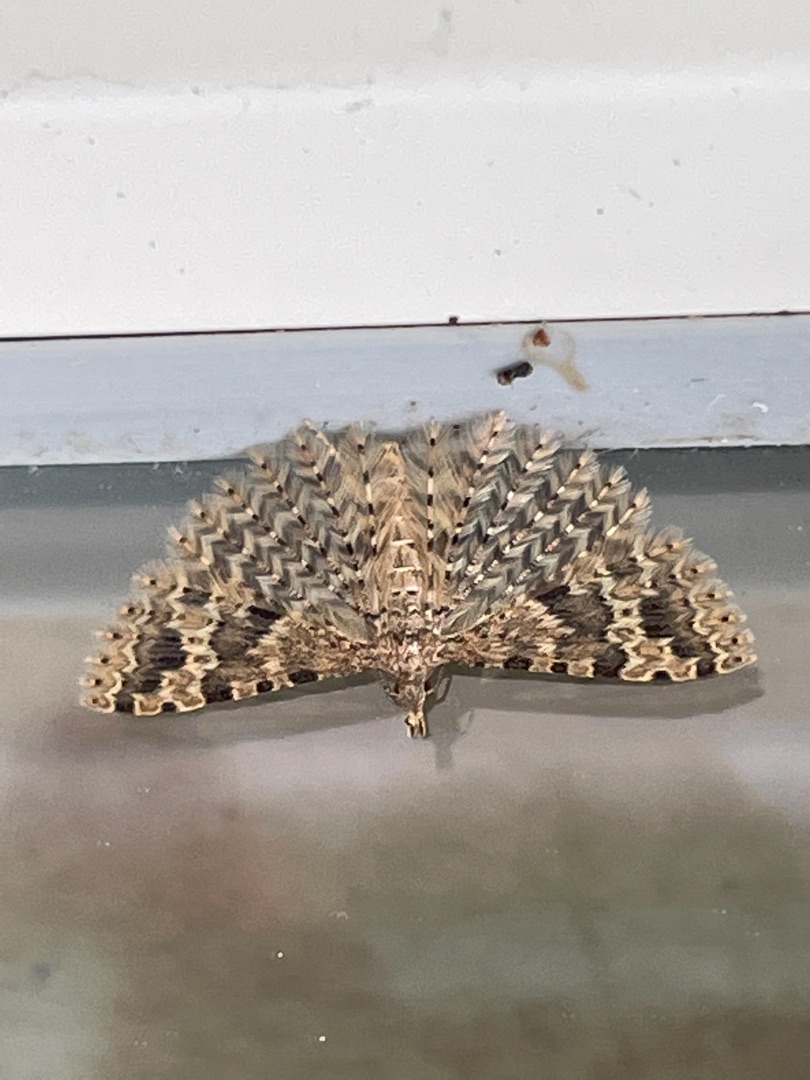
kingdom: Animalia
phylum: Arthropoda
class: Insecta
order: Lepidoptera
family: Alucitidae
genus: Alucita
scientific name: Alucita hexadactyla
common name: Kaprifoliefjermøl
